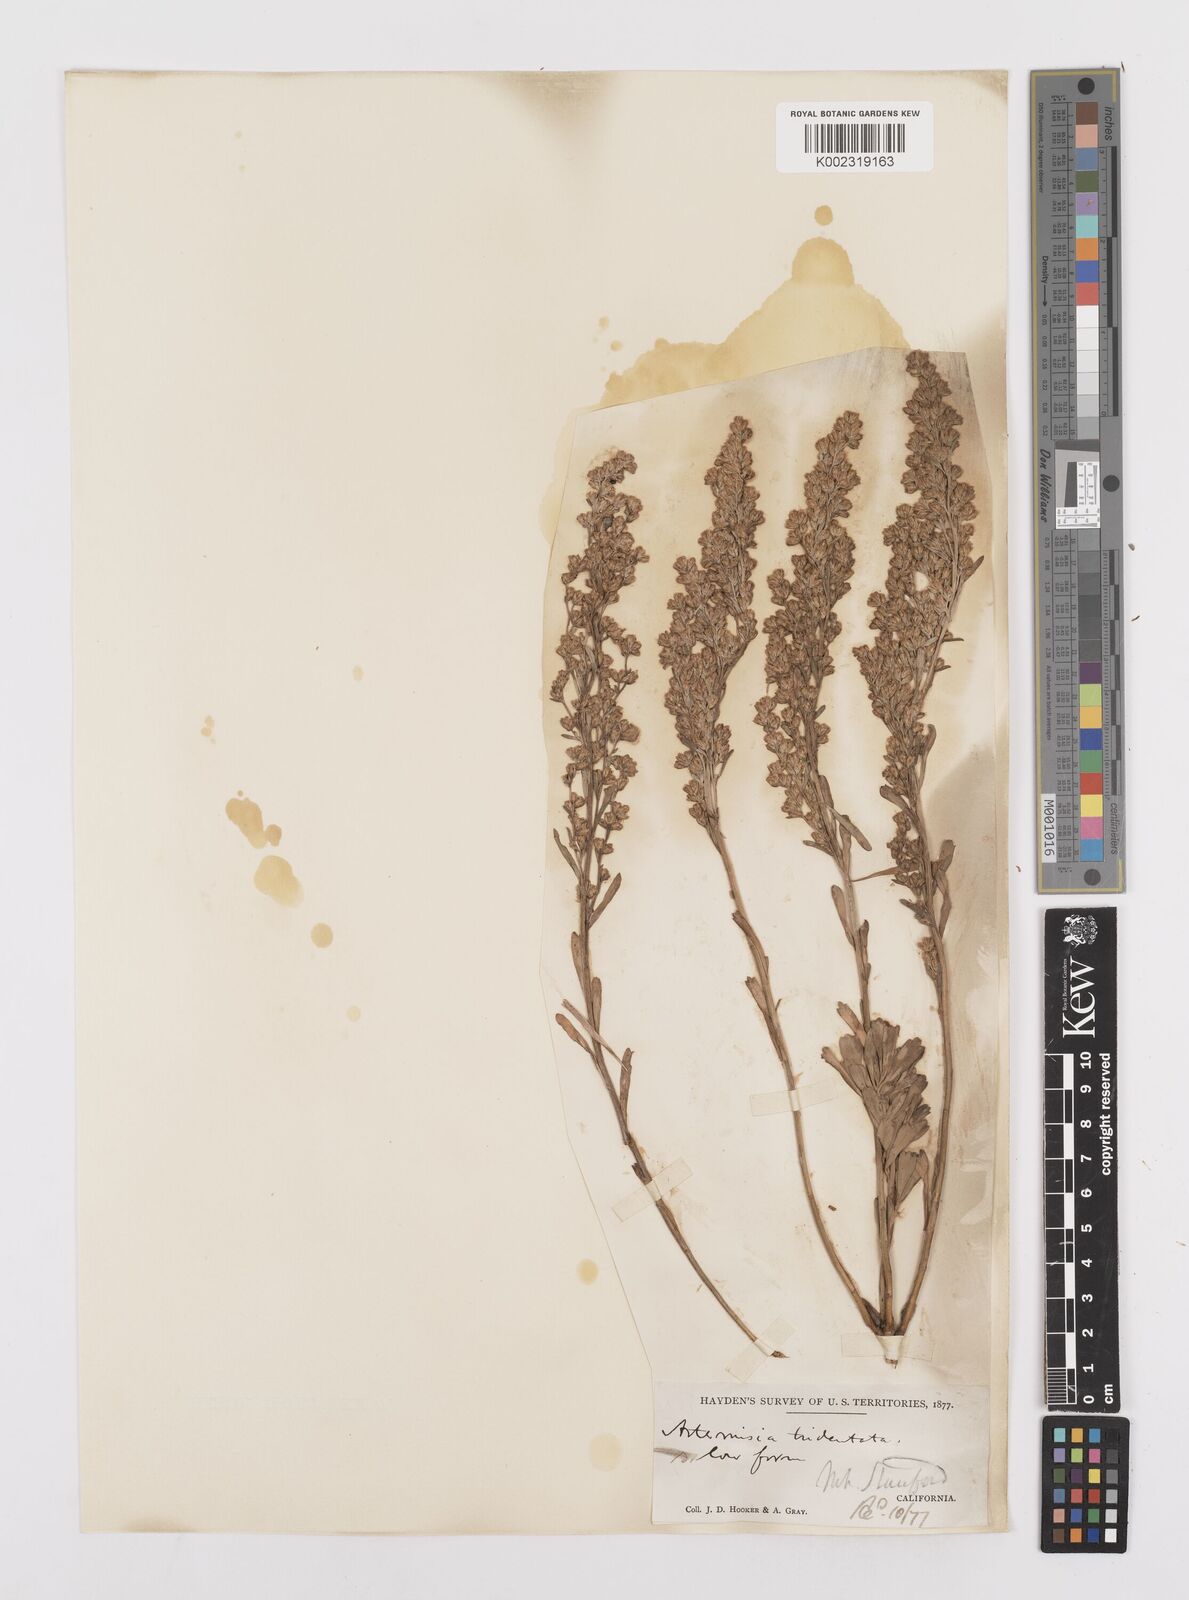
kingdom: Plantae
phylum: Tracheophyta
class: Magnoliopsida
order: Asterales
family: Asteraceae
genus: Artemisia
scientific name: Artemisia tridentata
